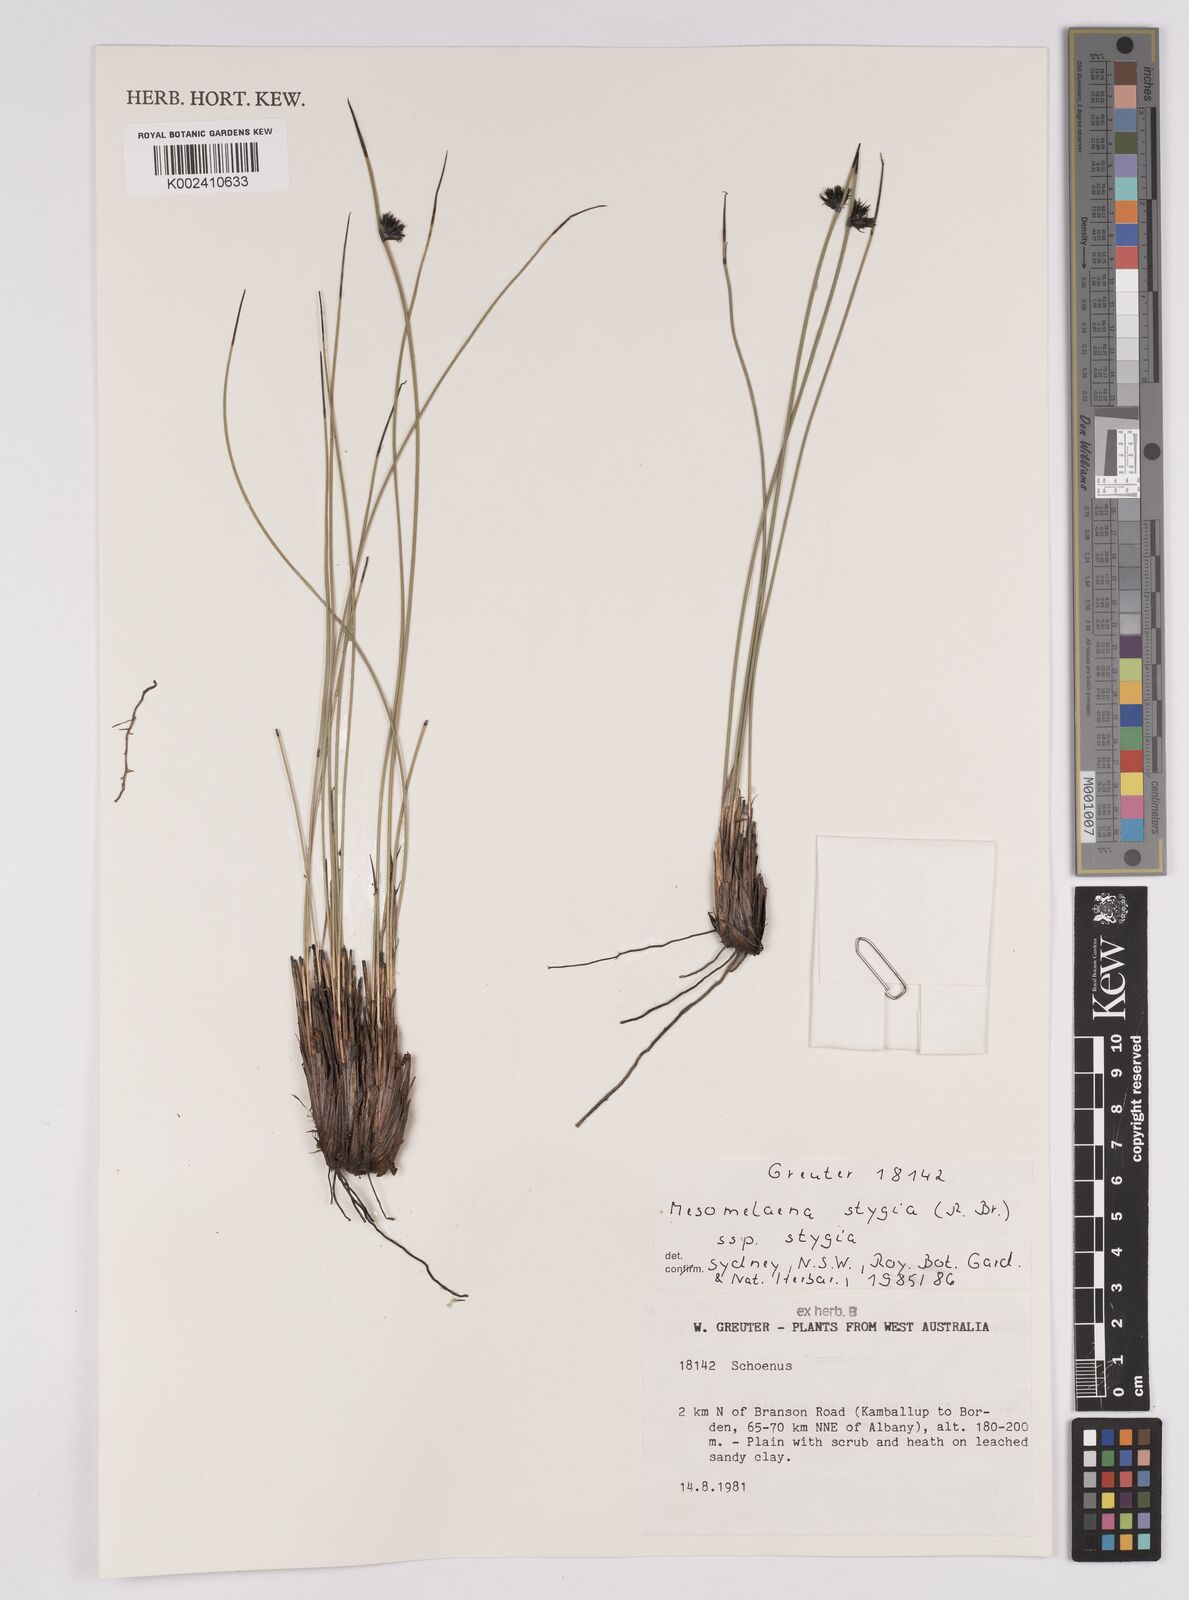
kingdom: Plantae
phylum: Tracheophyta
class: Liliopsida
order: Poales
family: Cyperaceae
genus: Mesomelaena
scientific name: Mesomelaena stygia
